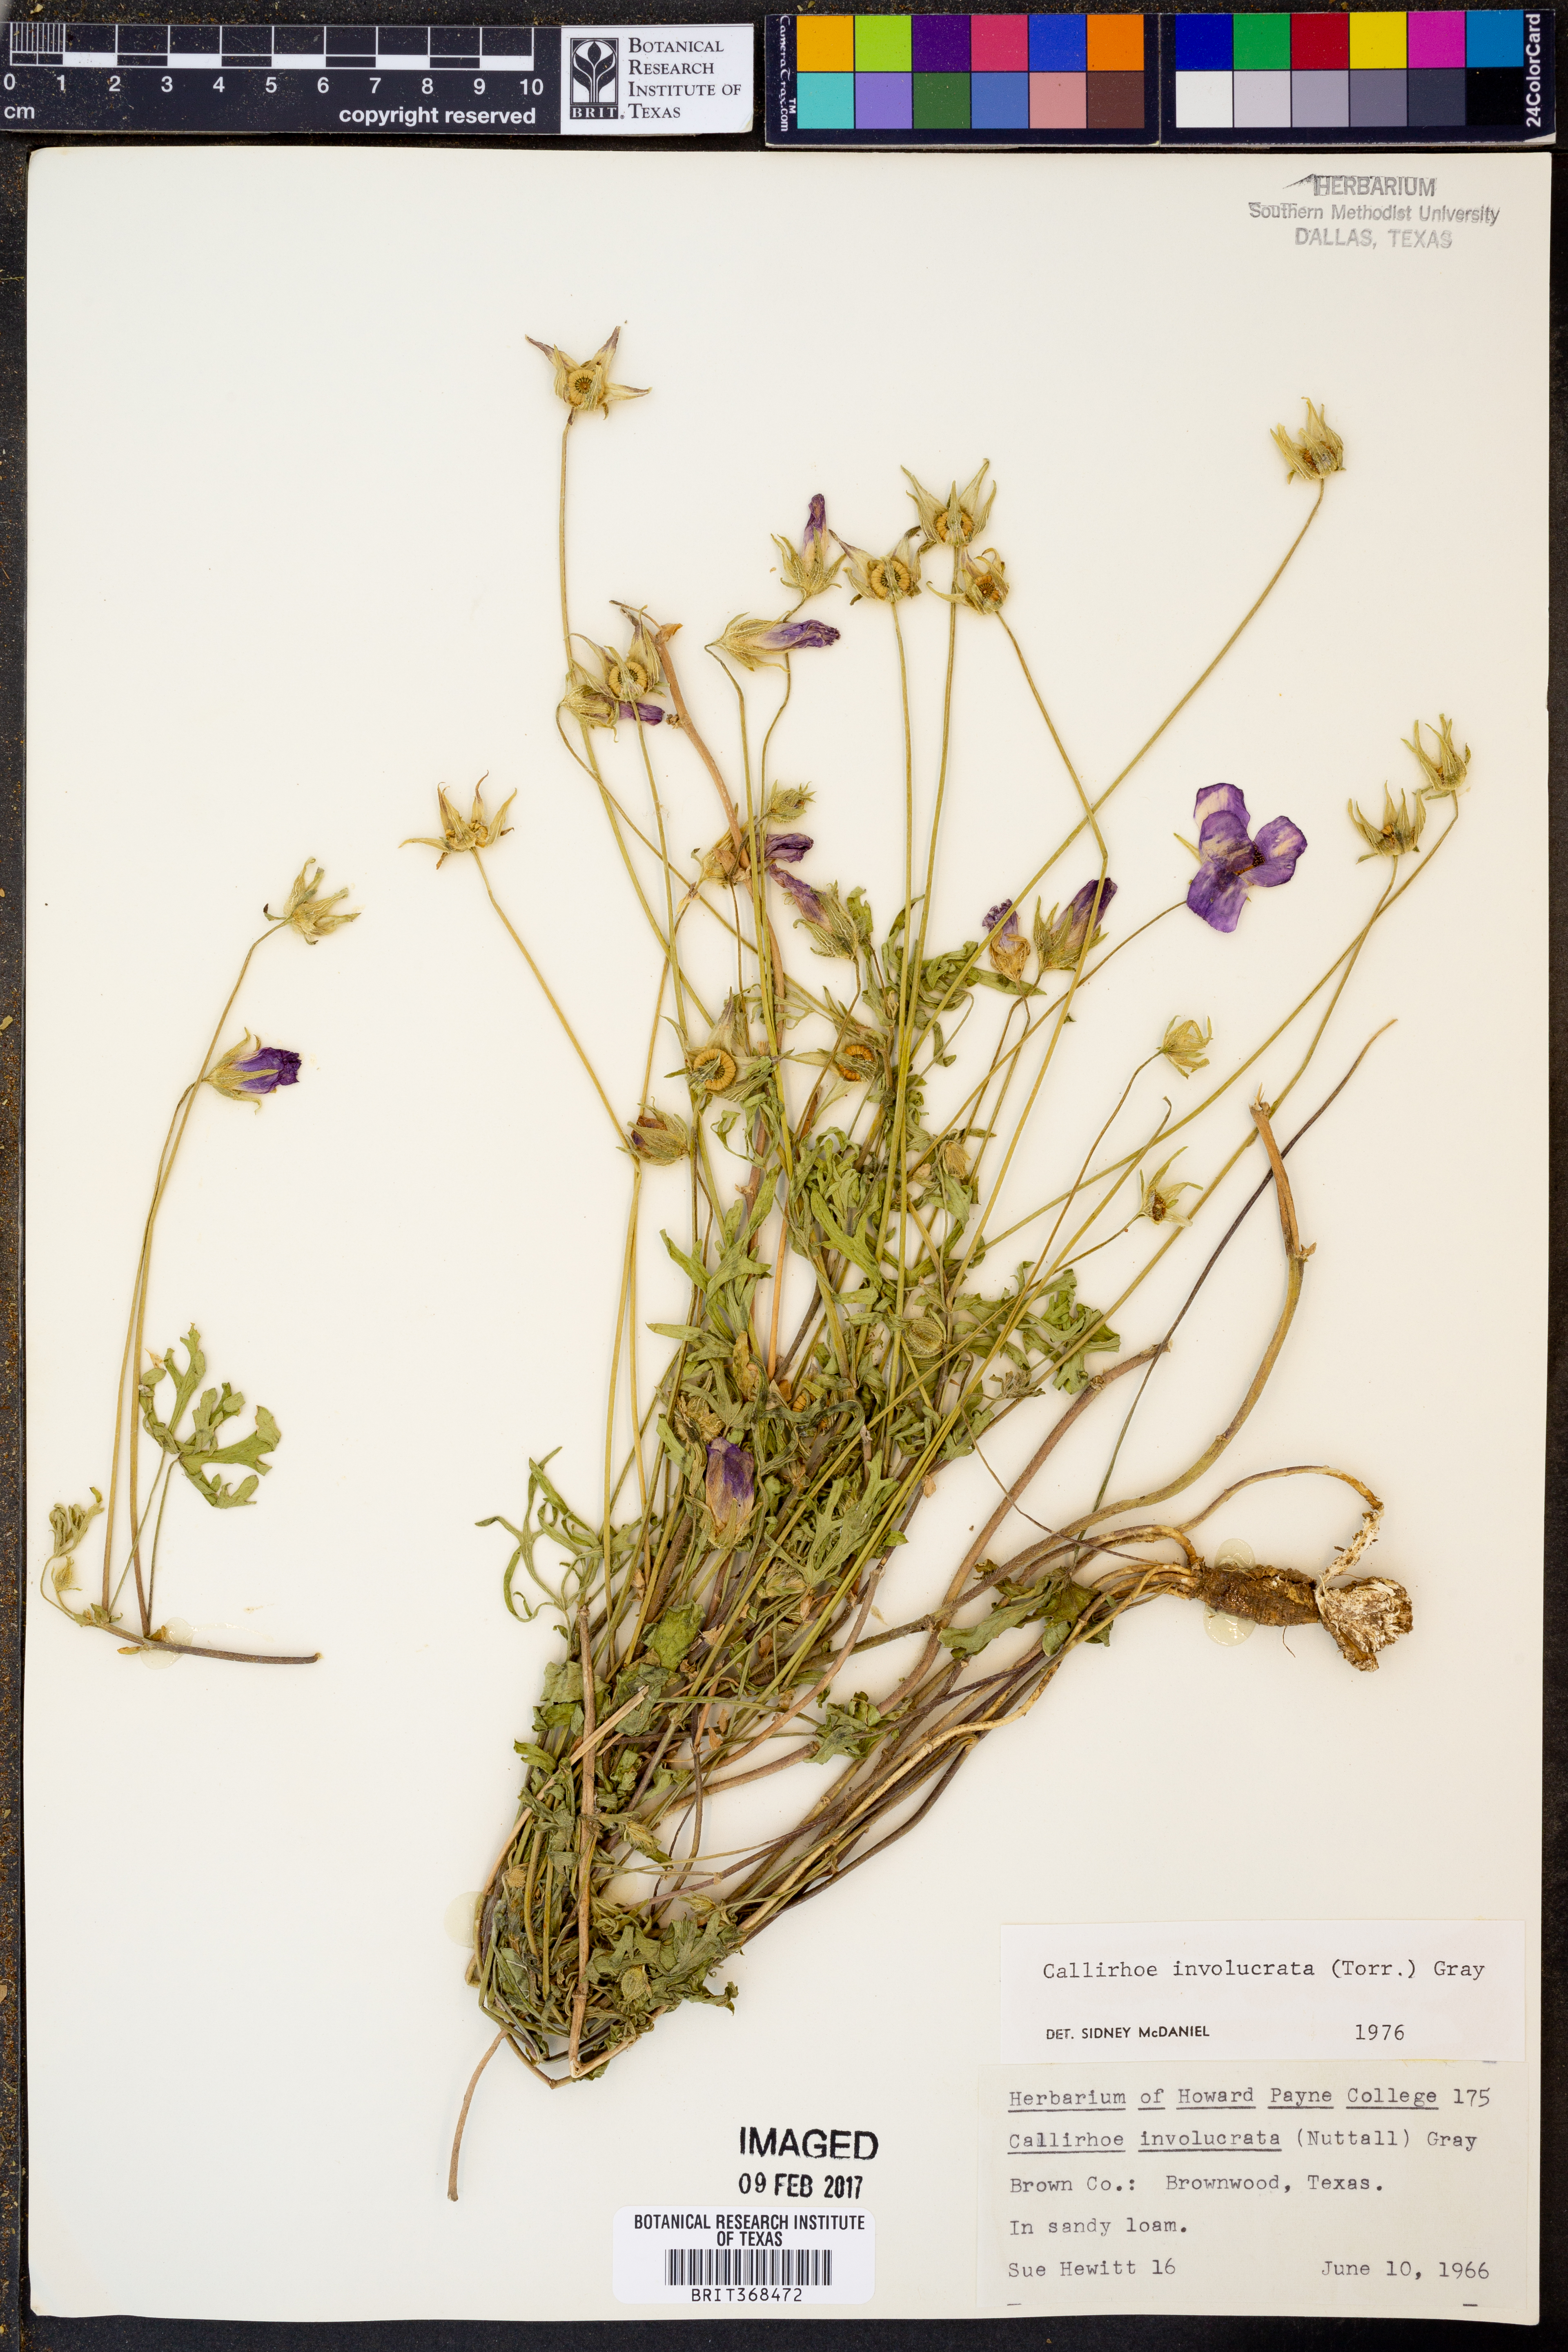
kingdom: Plantae
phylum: Tracheophyta
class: Magnoliopsida
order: Malvales
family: Malvaceae
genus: Callirhoe
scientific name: Callirhoe involucrata
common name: Purple poppy-mallow
